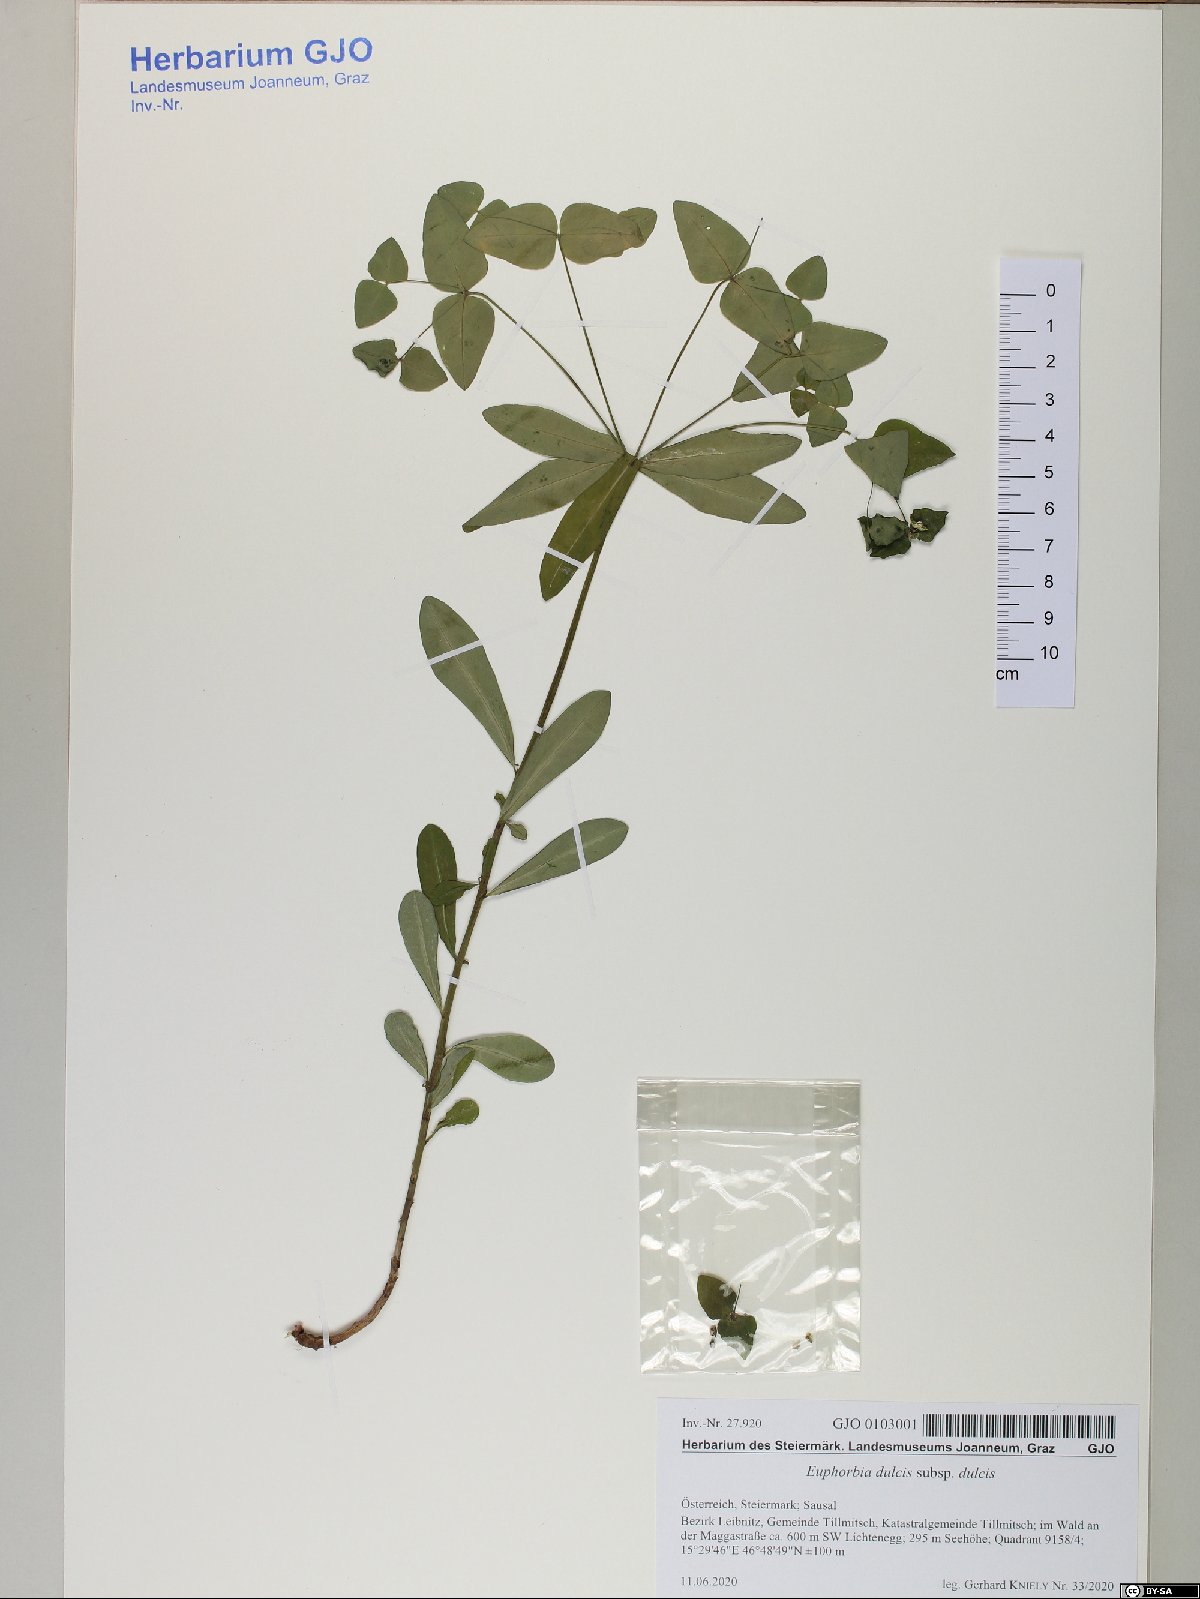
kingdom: Plantae
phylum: Tracheophyta
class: Magnoliopsida
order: Malpighiales
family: Euphorbiaceae
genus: Euphorbia
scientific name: Euphorbia dulcis
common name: Sweet spurge
